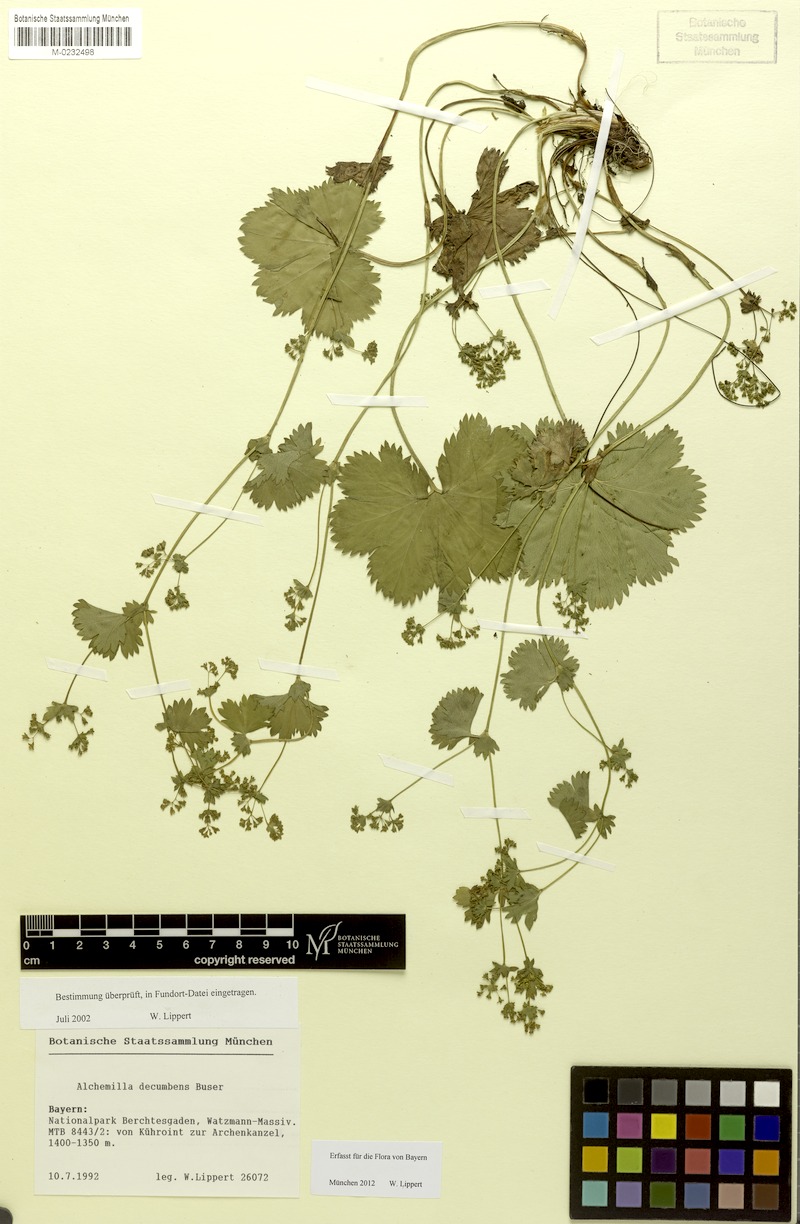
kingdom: Plantae
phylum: Tracheophyta
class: Magnoliopsida
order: Rosales
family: Rosaceae
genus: Alchemilla
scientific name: Alchemilla decumbens
